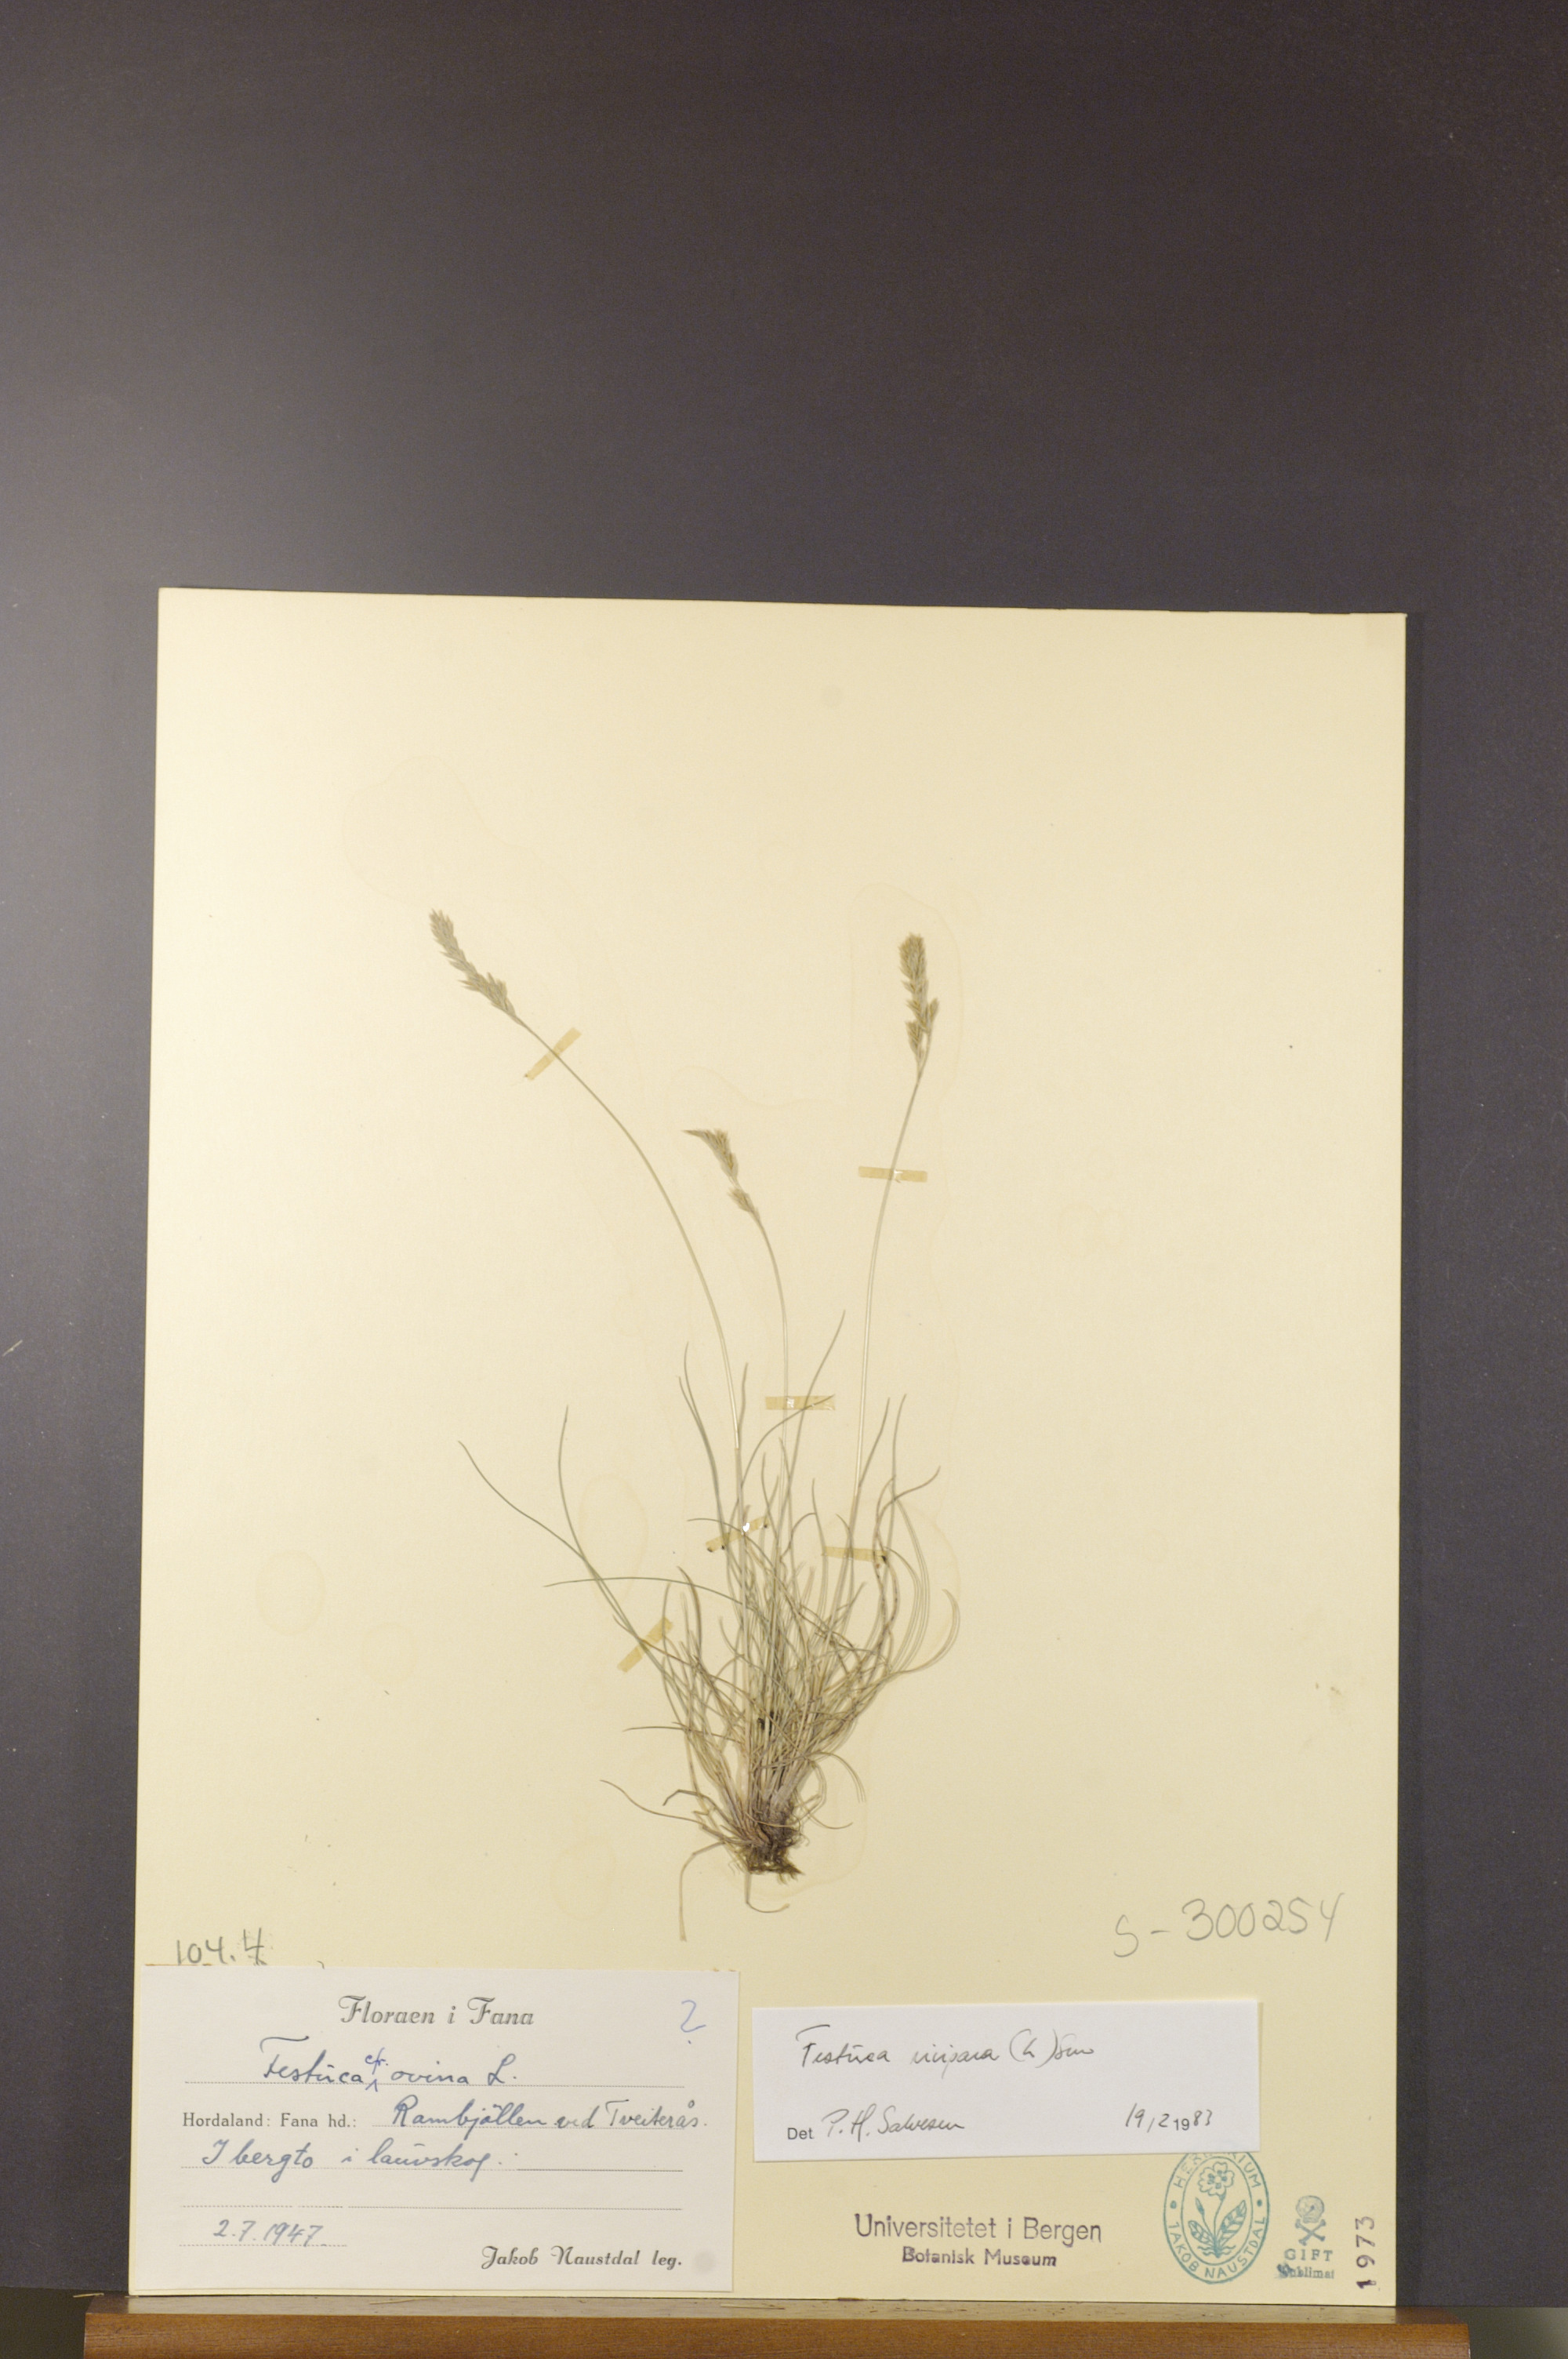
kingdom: Plantae
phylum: Tracheophyta
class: Liliopsida
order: Poales
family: Poaceae
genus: Festuca
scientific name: Festuca vivipara
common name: Viviparous sheep's-fescue
